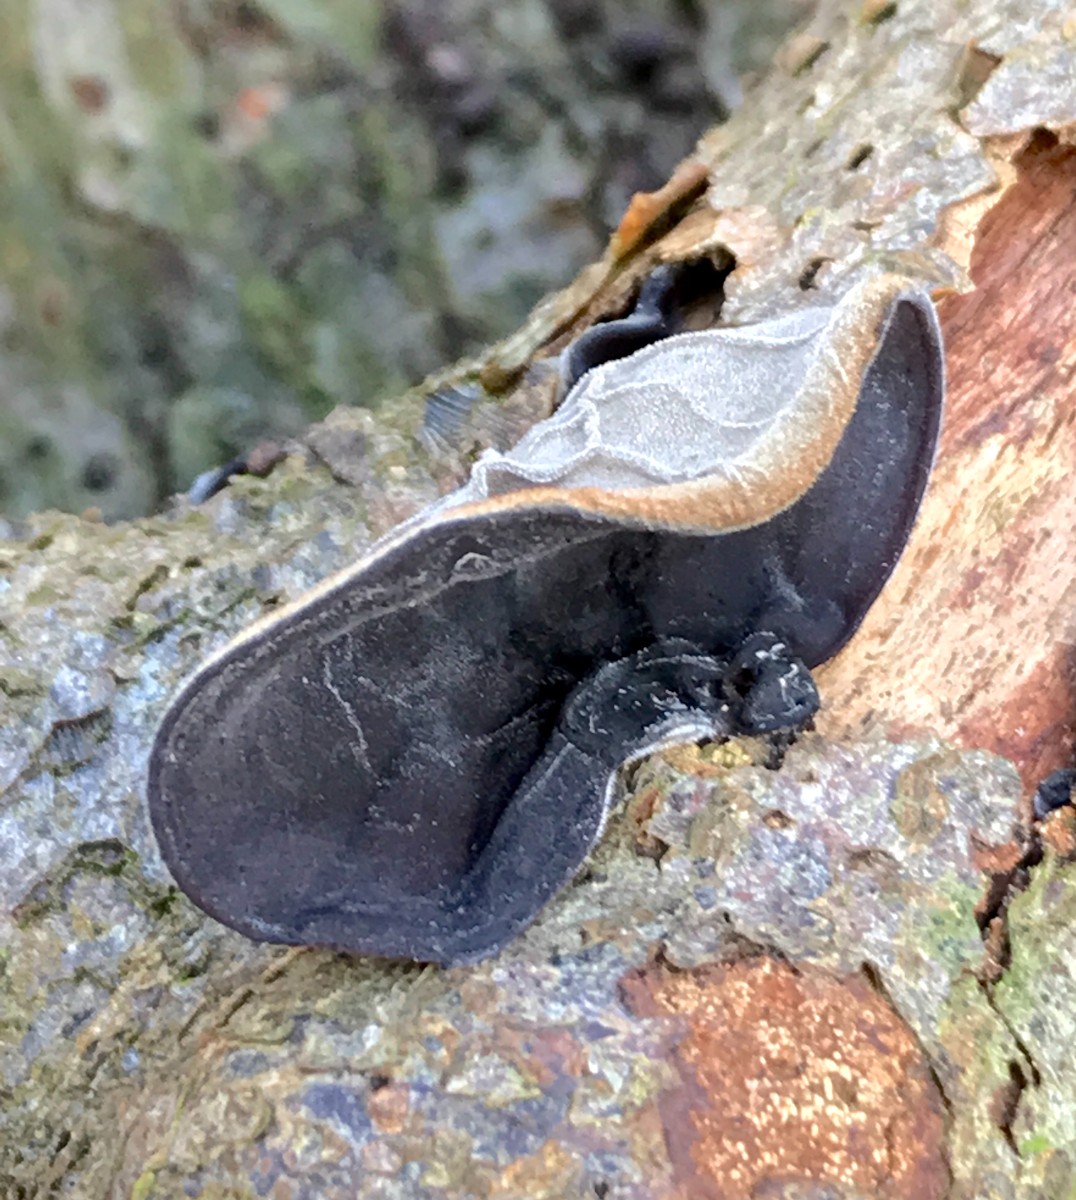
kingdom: Fungi
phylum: Basidiomycota
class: Agaricomycetes
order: Auriculariales
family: Auriculariaceae
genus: Auricularia
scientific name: Auricularia auricula-judae
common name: almindelig judasøre
